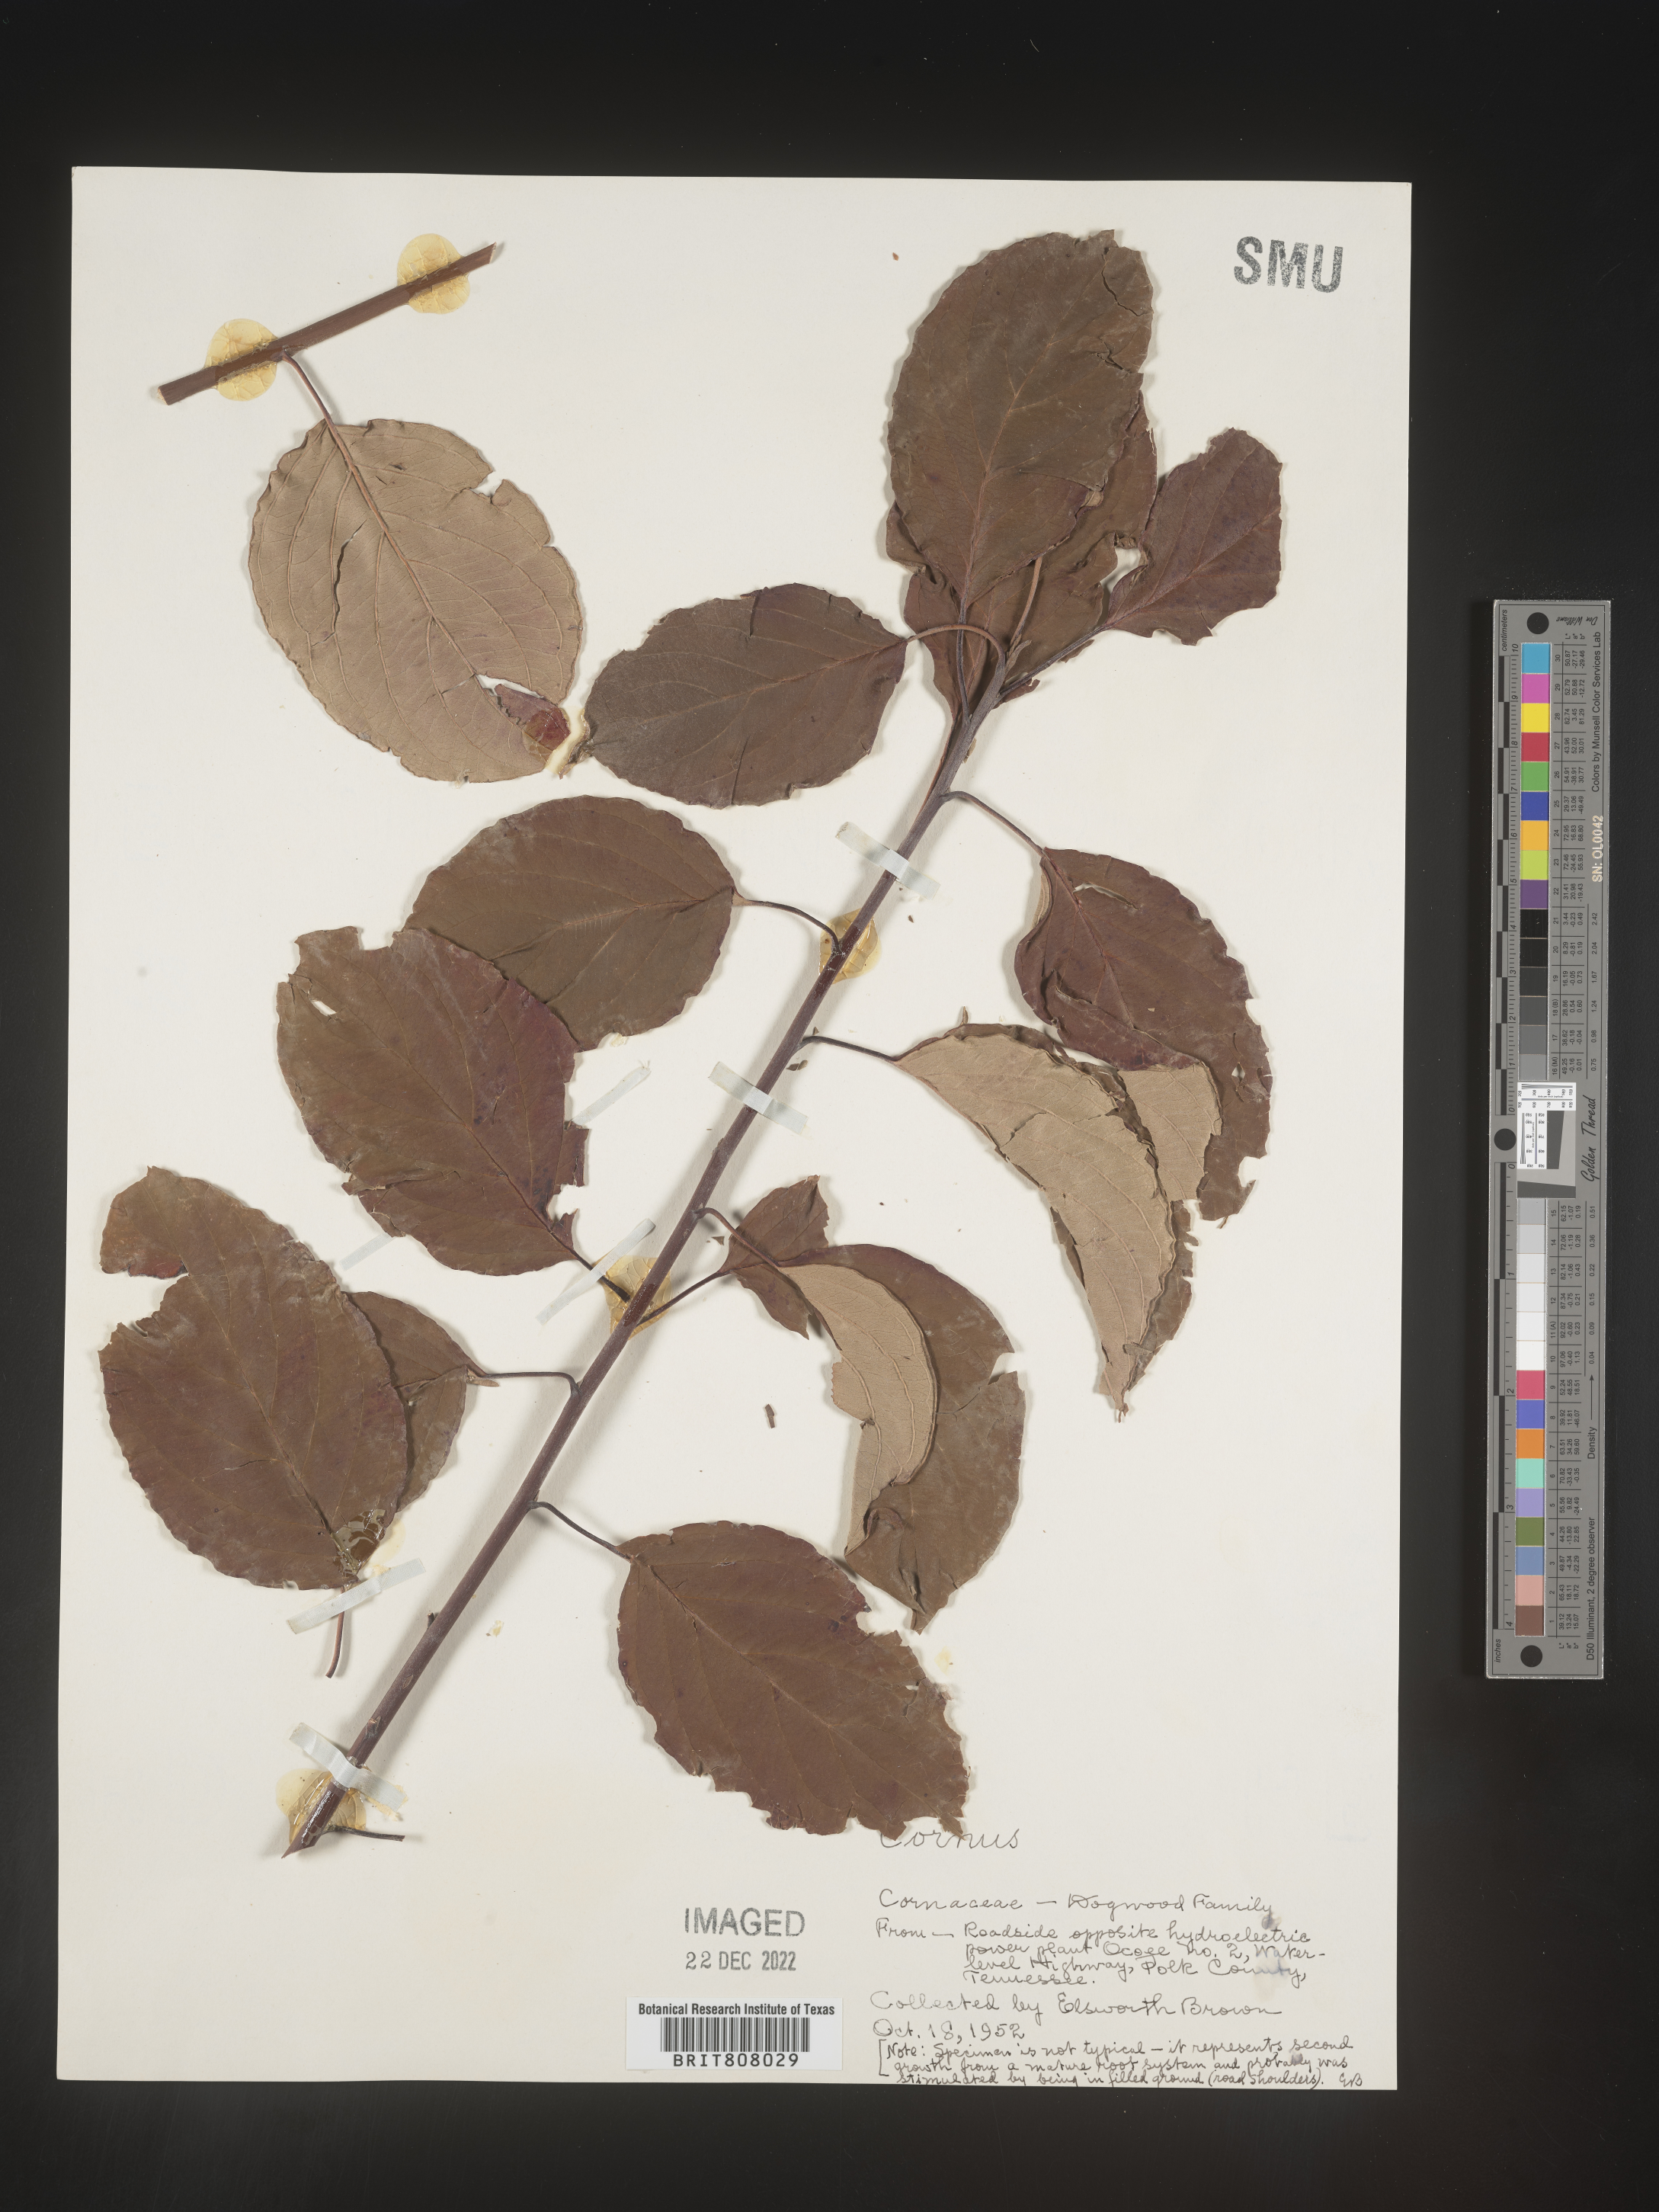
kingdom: Plantae
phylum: Tracheophyta
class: Magnoliopsida
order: Cornales
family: Cornaceae
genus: Cornus
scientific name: Cornus
